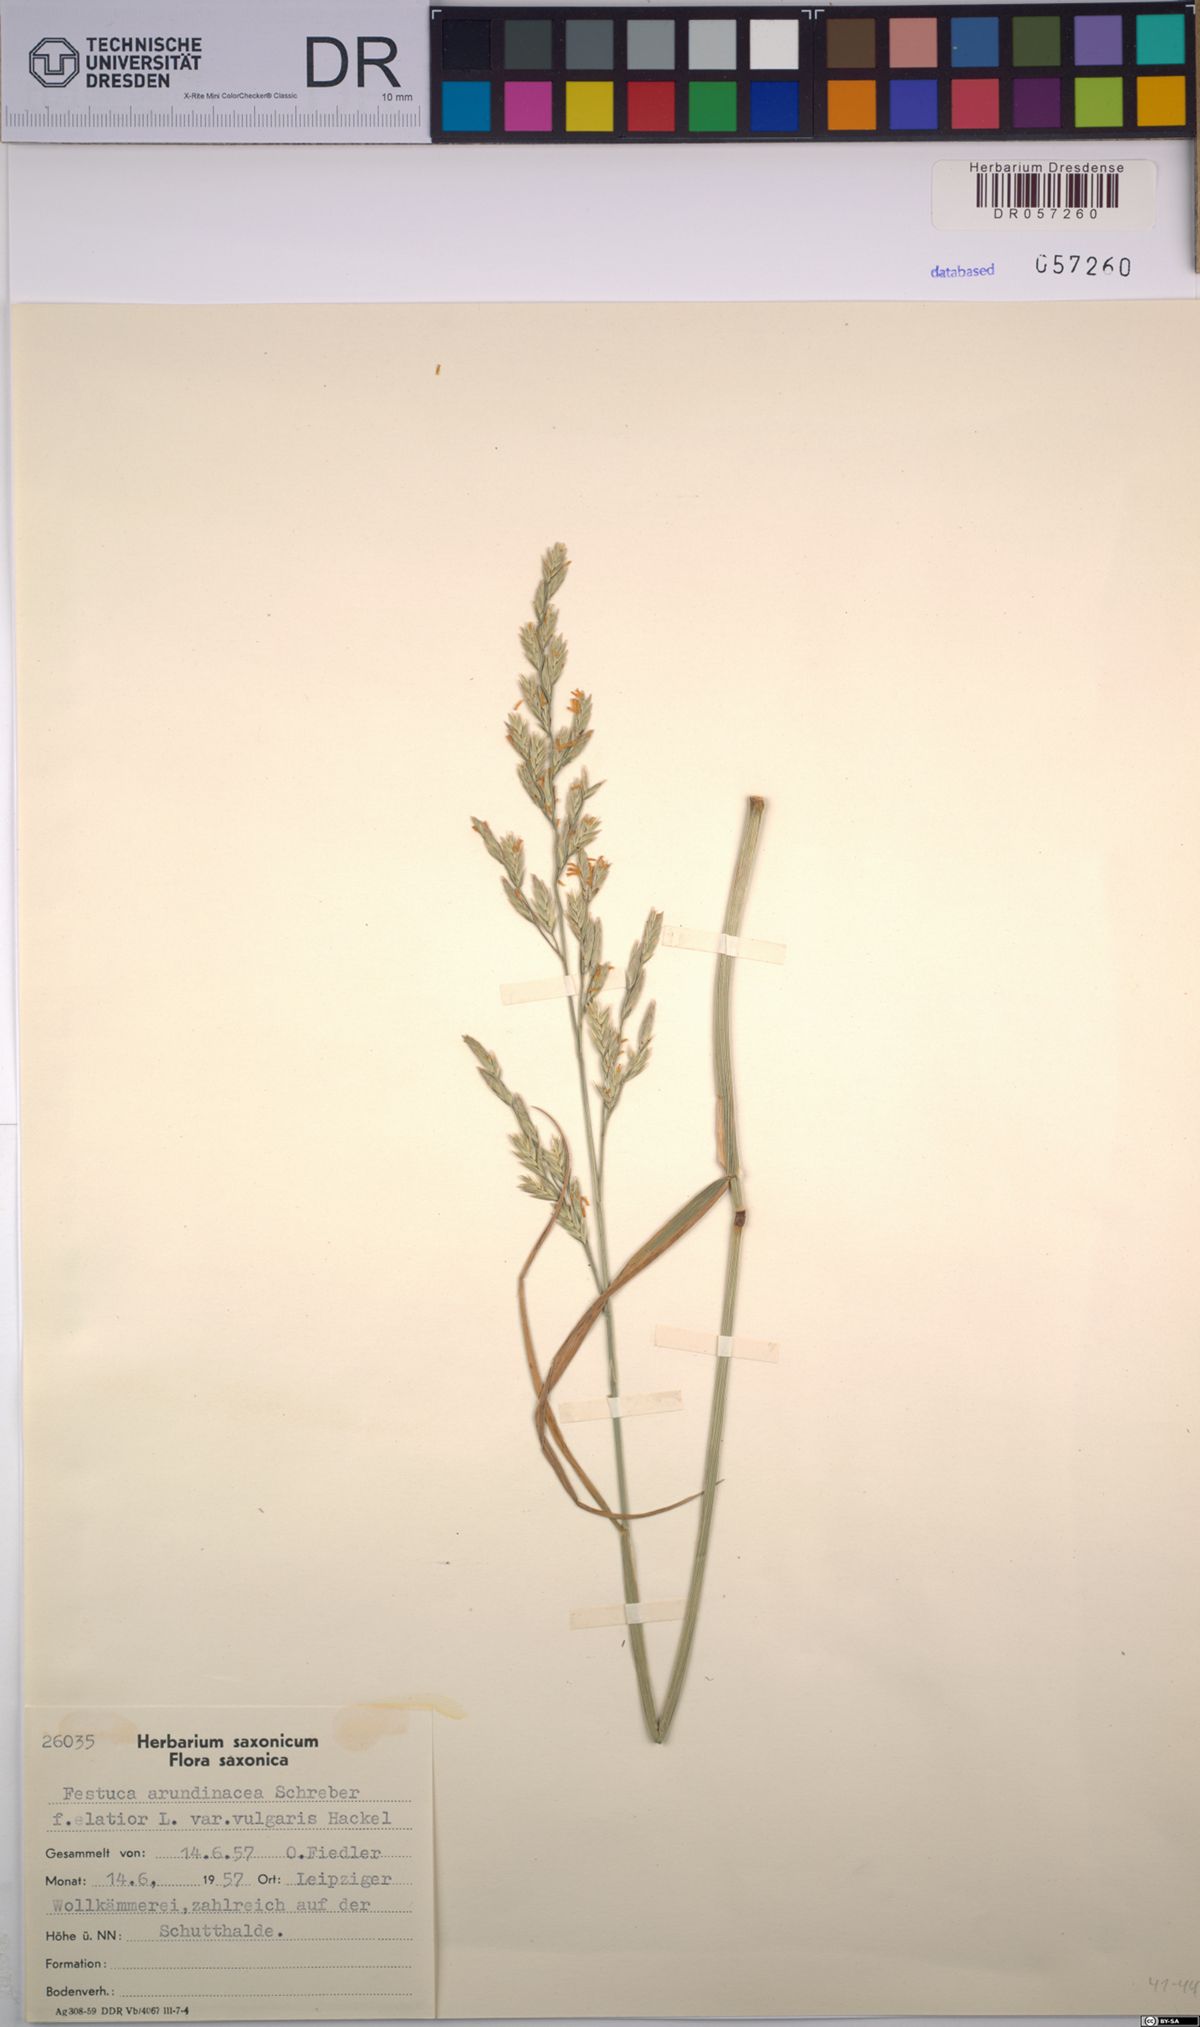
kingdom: Plantae
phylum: Tracheophyta
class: Liliopsida
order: Poales
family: Poaceae
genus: Lolium
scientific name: Lolium arundinaceum
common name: Reed fescue
